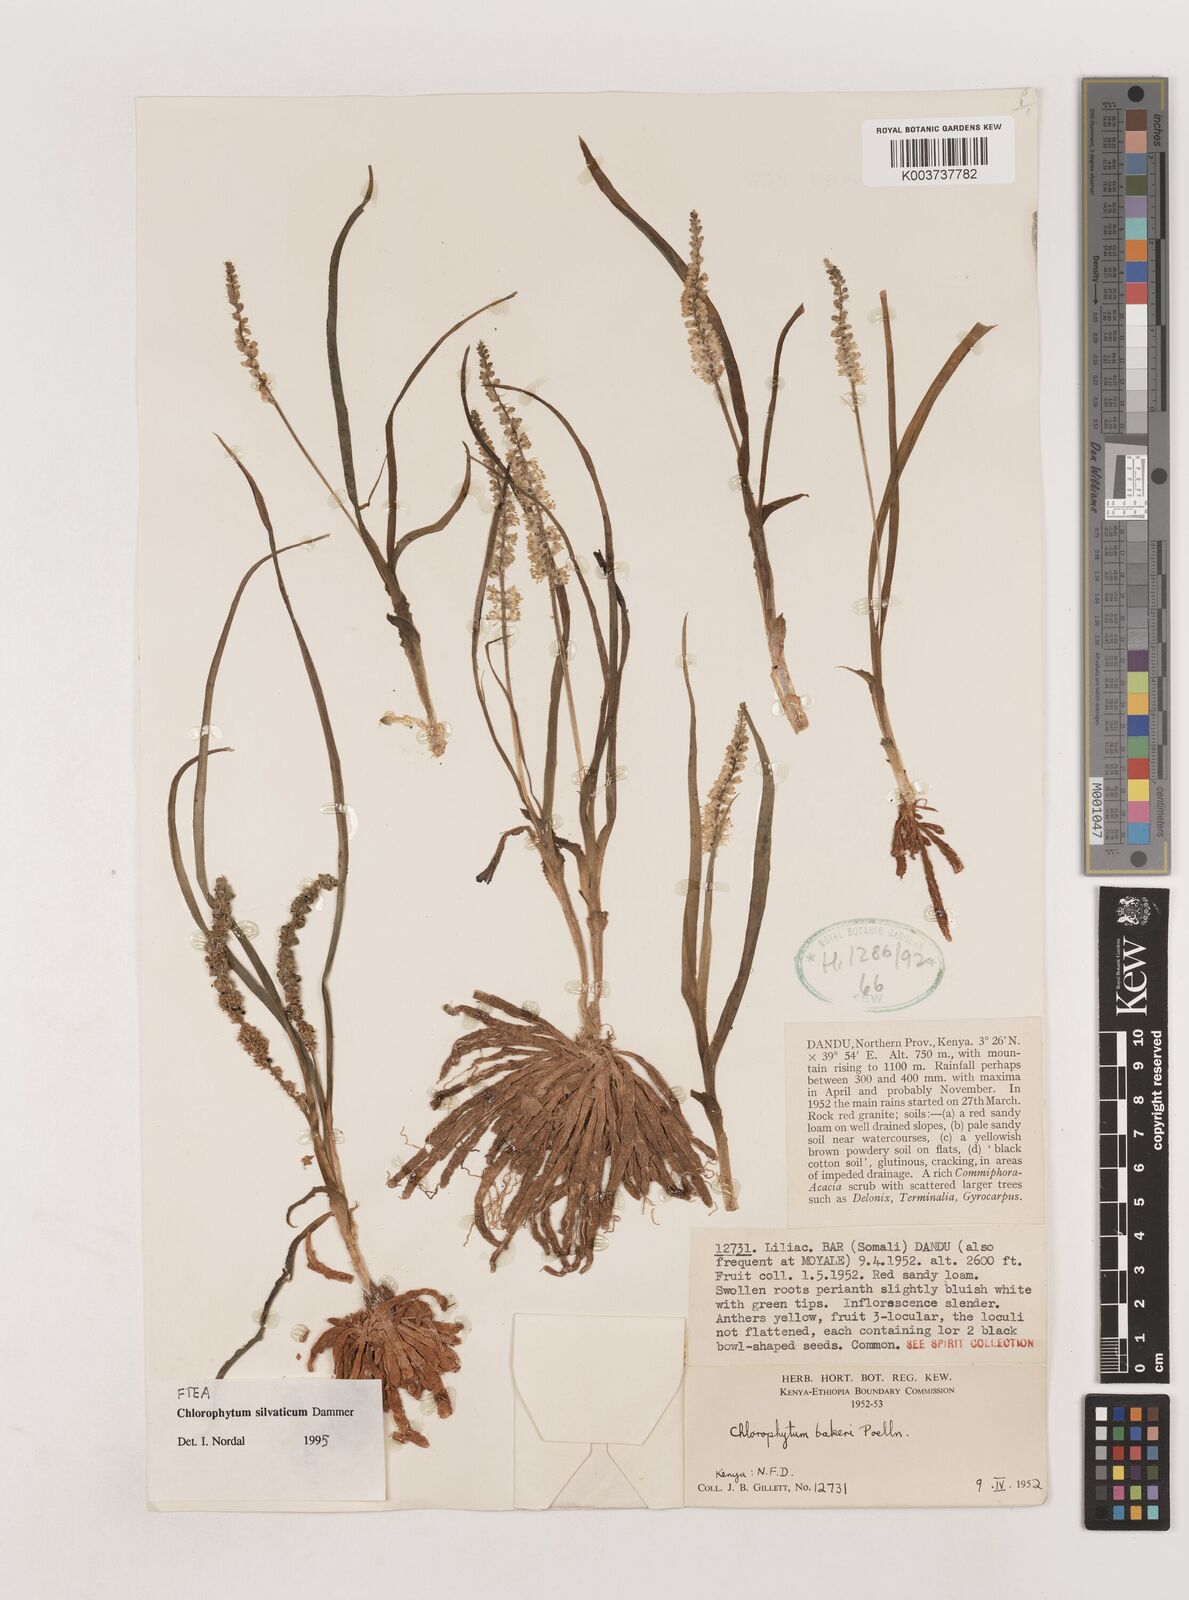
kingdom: Plantae
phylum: Tracheophyta
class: Liliopsida
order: Asparagales
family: Asparagaceae
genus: Chlorophytum
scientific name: Chlorophytum africanum
